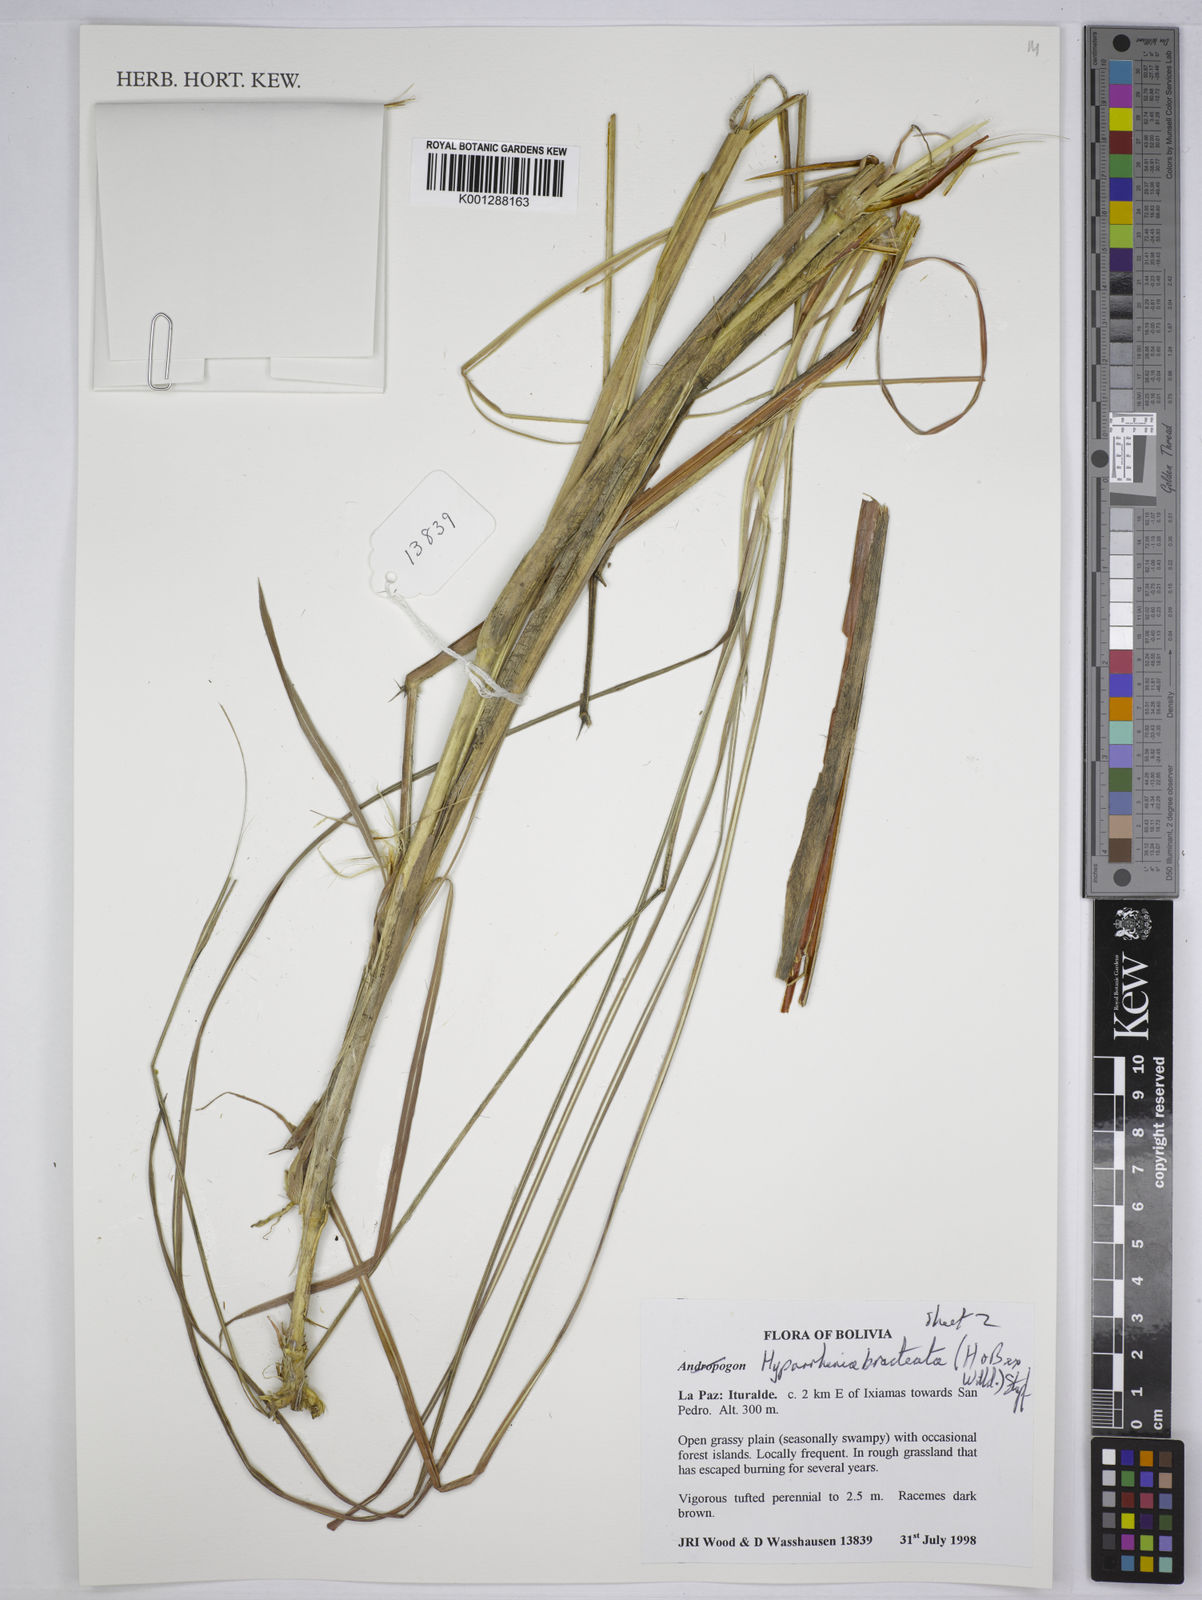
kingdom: Plantae
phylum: Tracheophyta
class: Liliopsida
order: Poales
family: Poaceae
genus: Hyparrhenia
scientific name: Hyparrhenia bracteata
